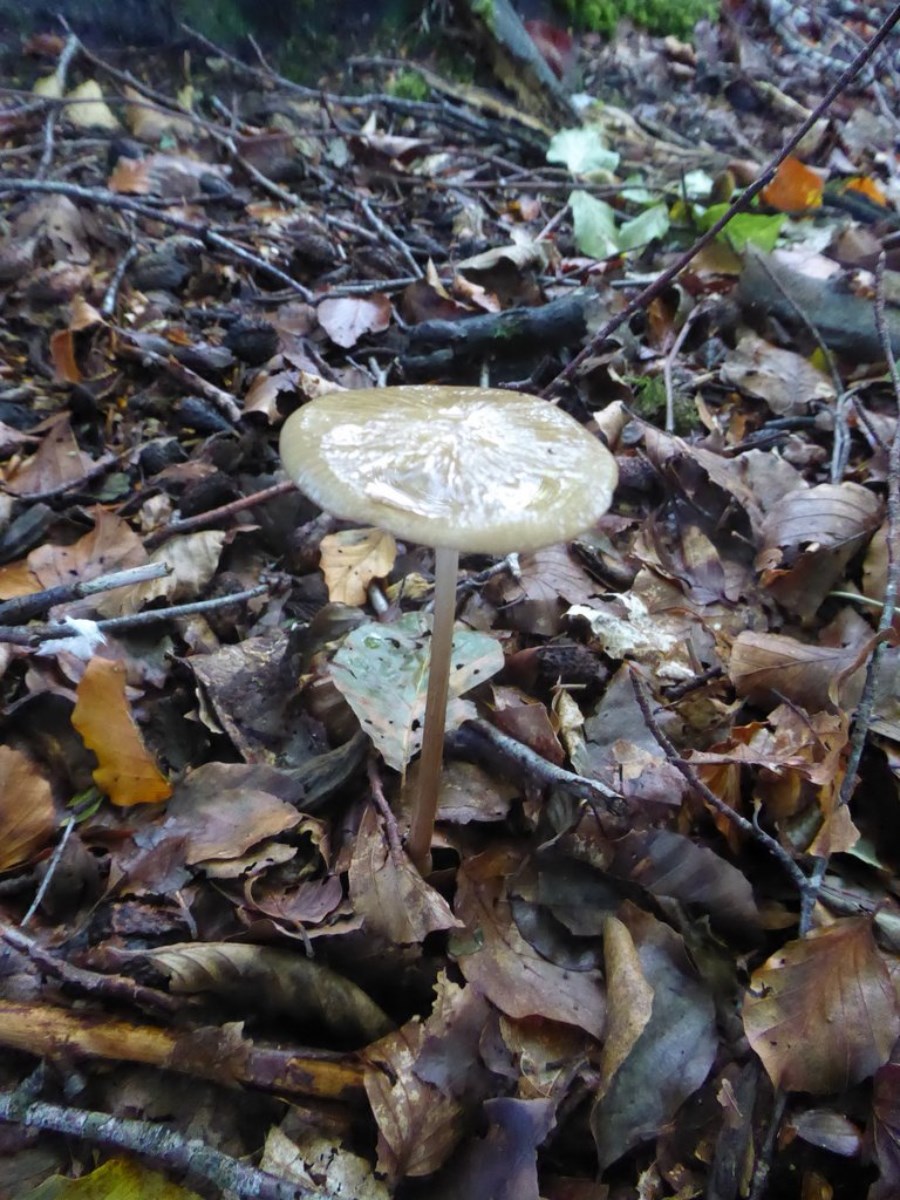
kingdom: Fungi
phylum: Basidiomycota
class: Agaricomycetes
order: Agaricales
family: Physalacriaceae
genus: Hymenopellis
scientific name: Hymenopellis radicata
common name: almindelig pælerodshat
